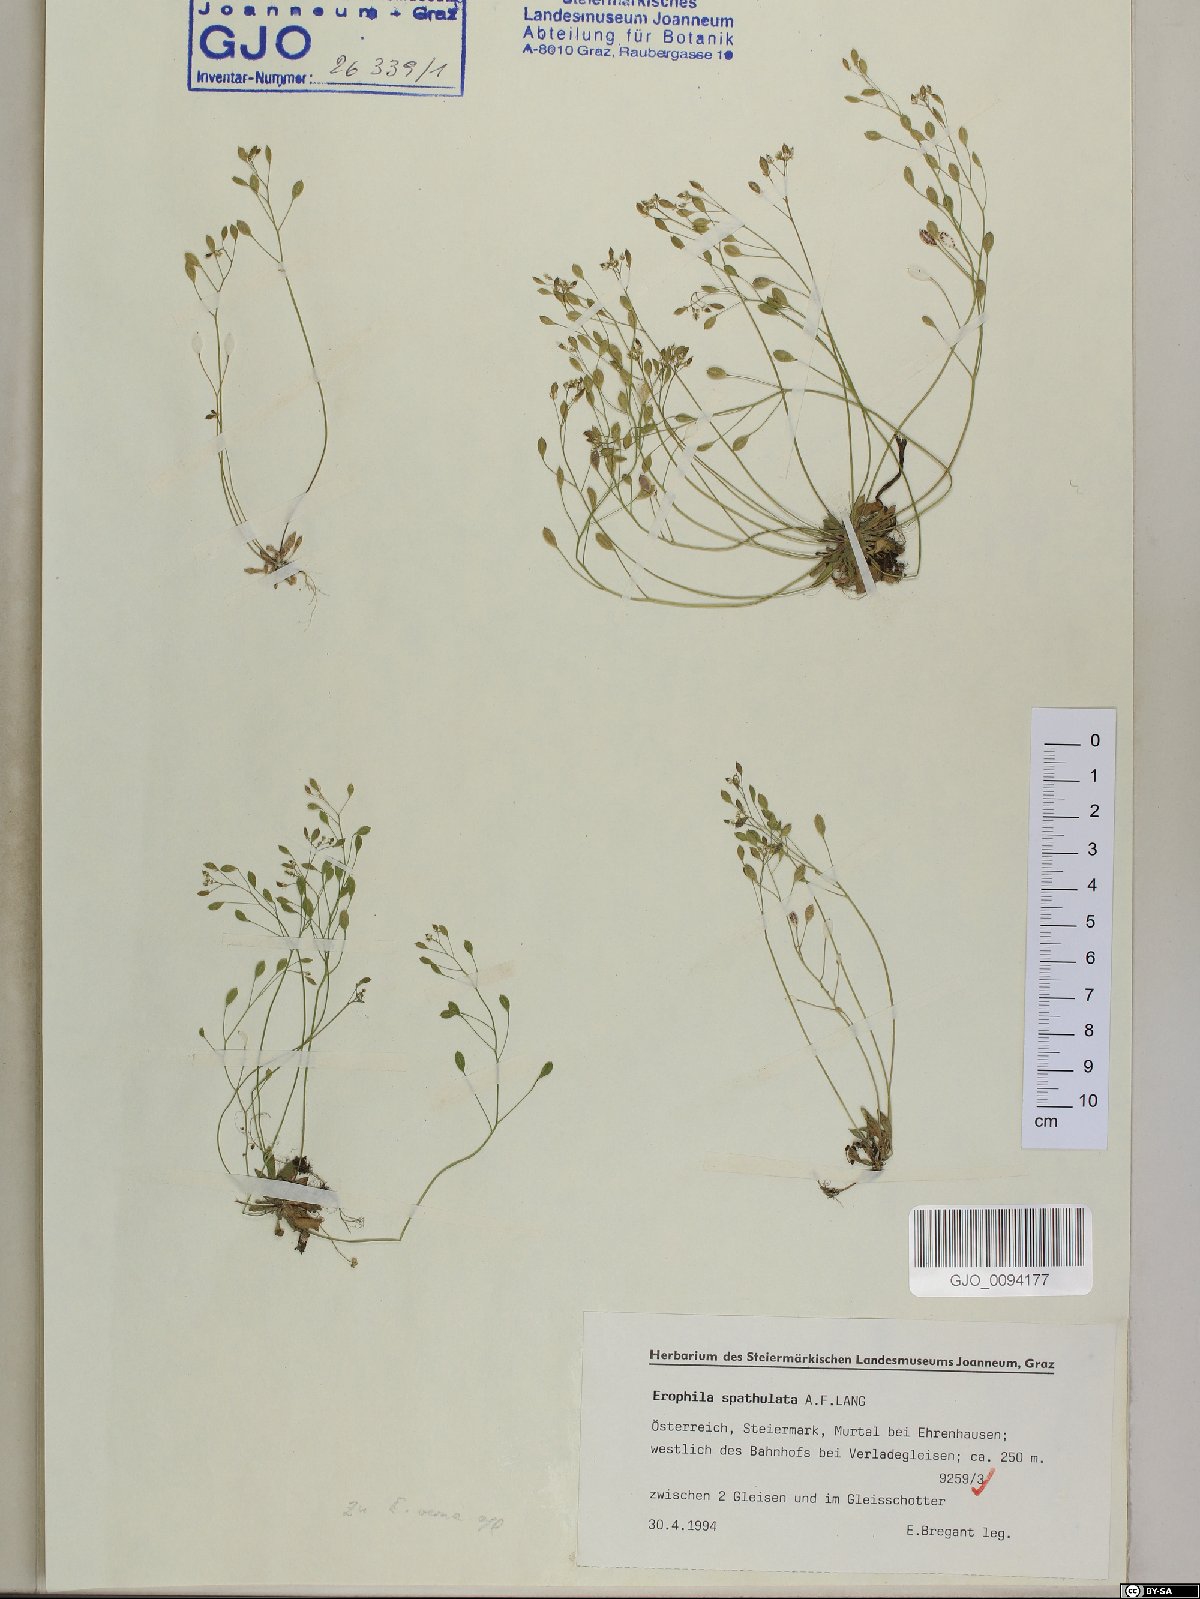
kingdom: Plantae
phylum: Tracheophyta
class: Magnoliopsida
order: Brassicales
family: Brassicaceae
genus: Draba
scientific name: Draba verna
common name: Spring draba
